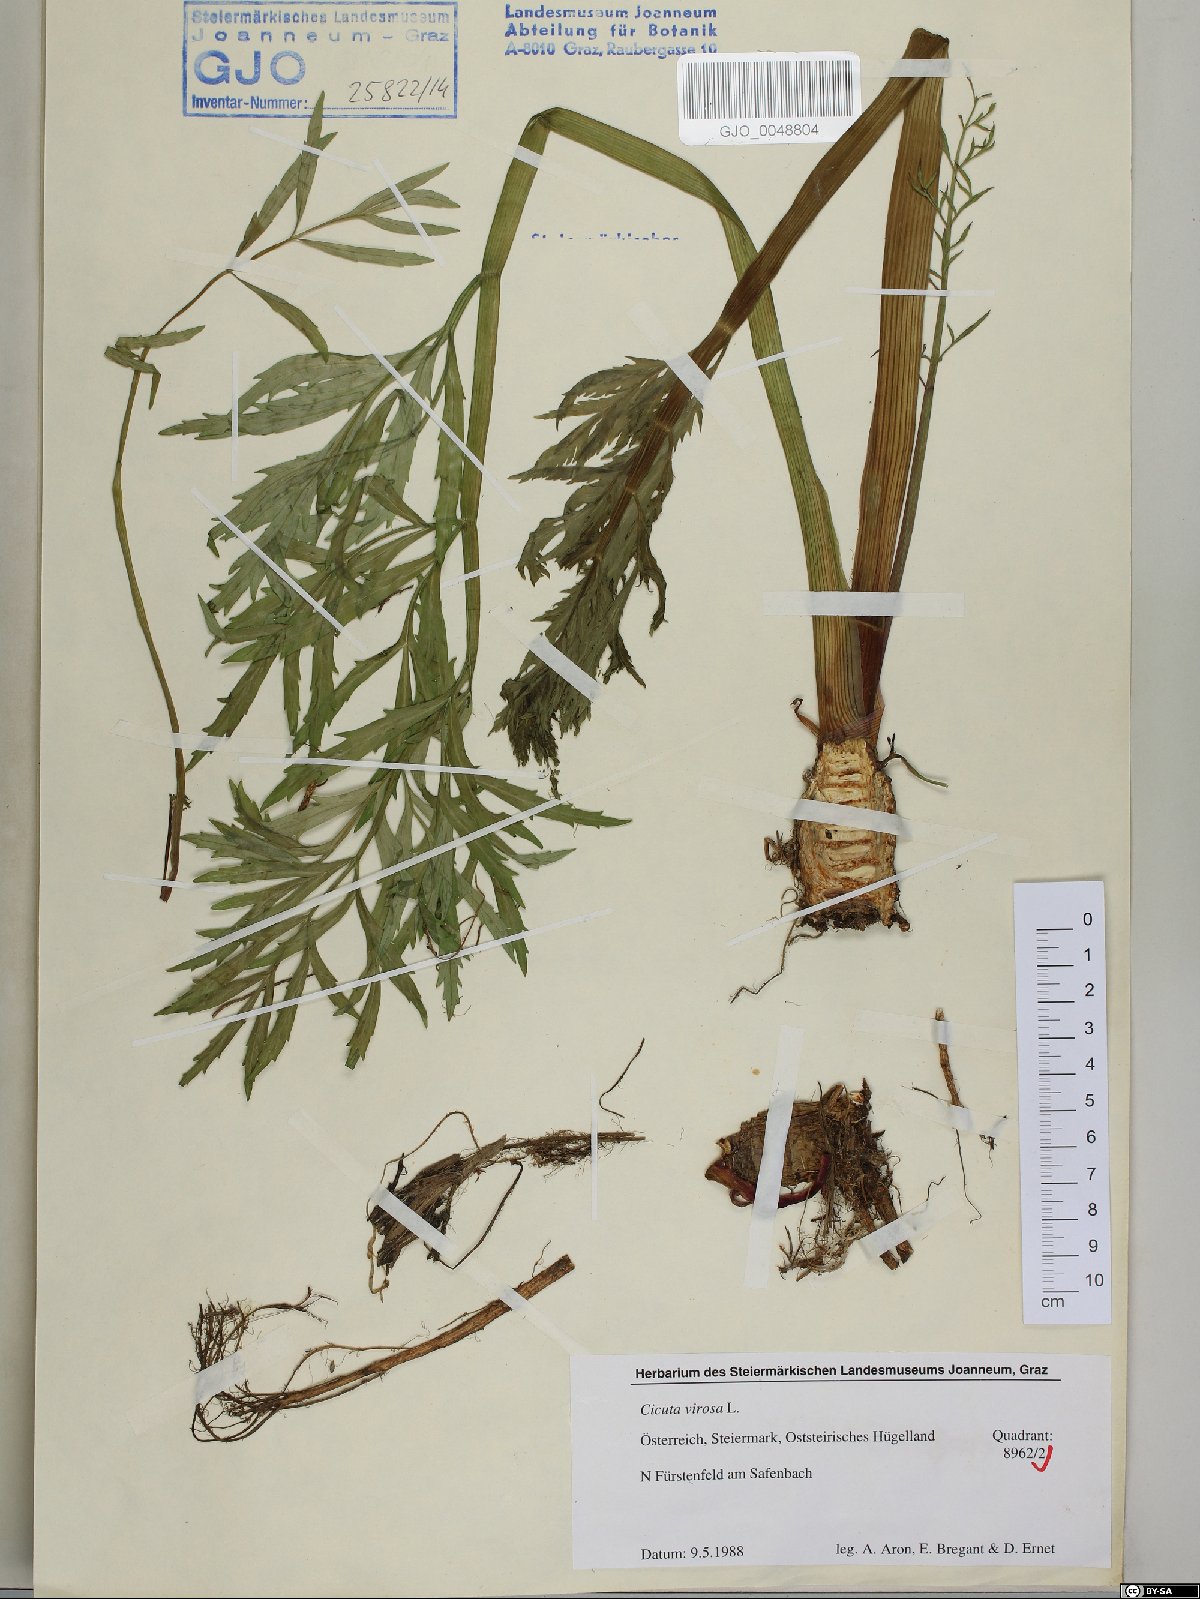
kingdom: Plantae
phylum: Tracheophyta
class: Magnoliopsida
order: Apiales
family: Apiaceae
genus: Cicuta
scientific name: Cicuta virosa
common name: Cowbane
